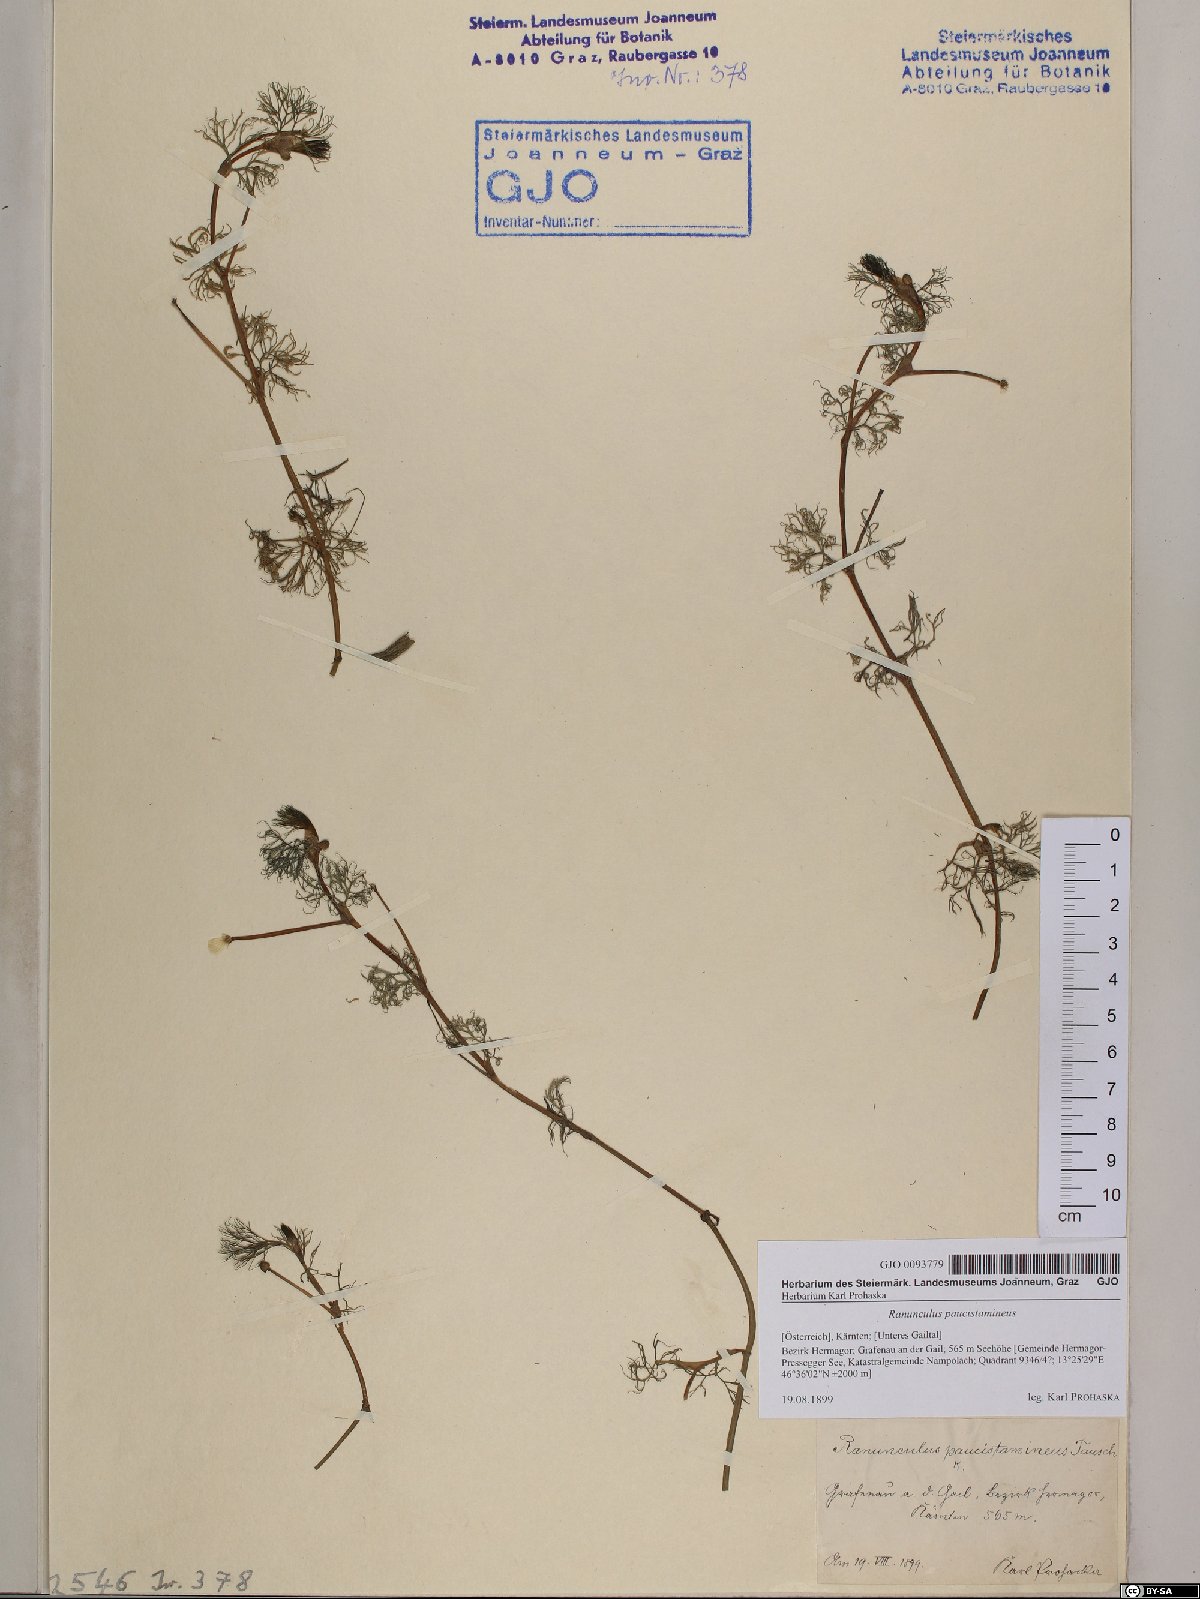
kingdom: Plantae
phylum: Tracheophyta
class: Magnoliopsida
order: Ranunculales
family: Ranunculaceae
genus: Ranunculus
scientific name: Ranunculus
